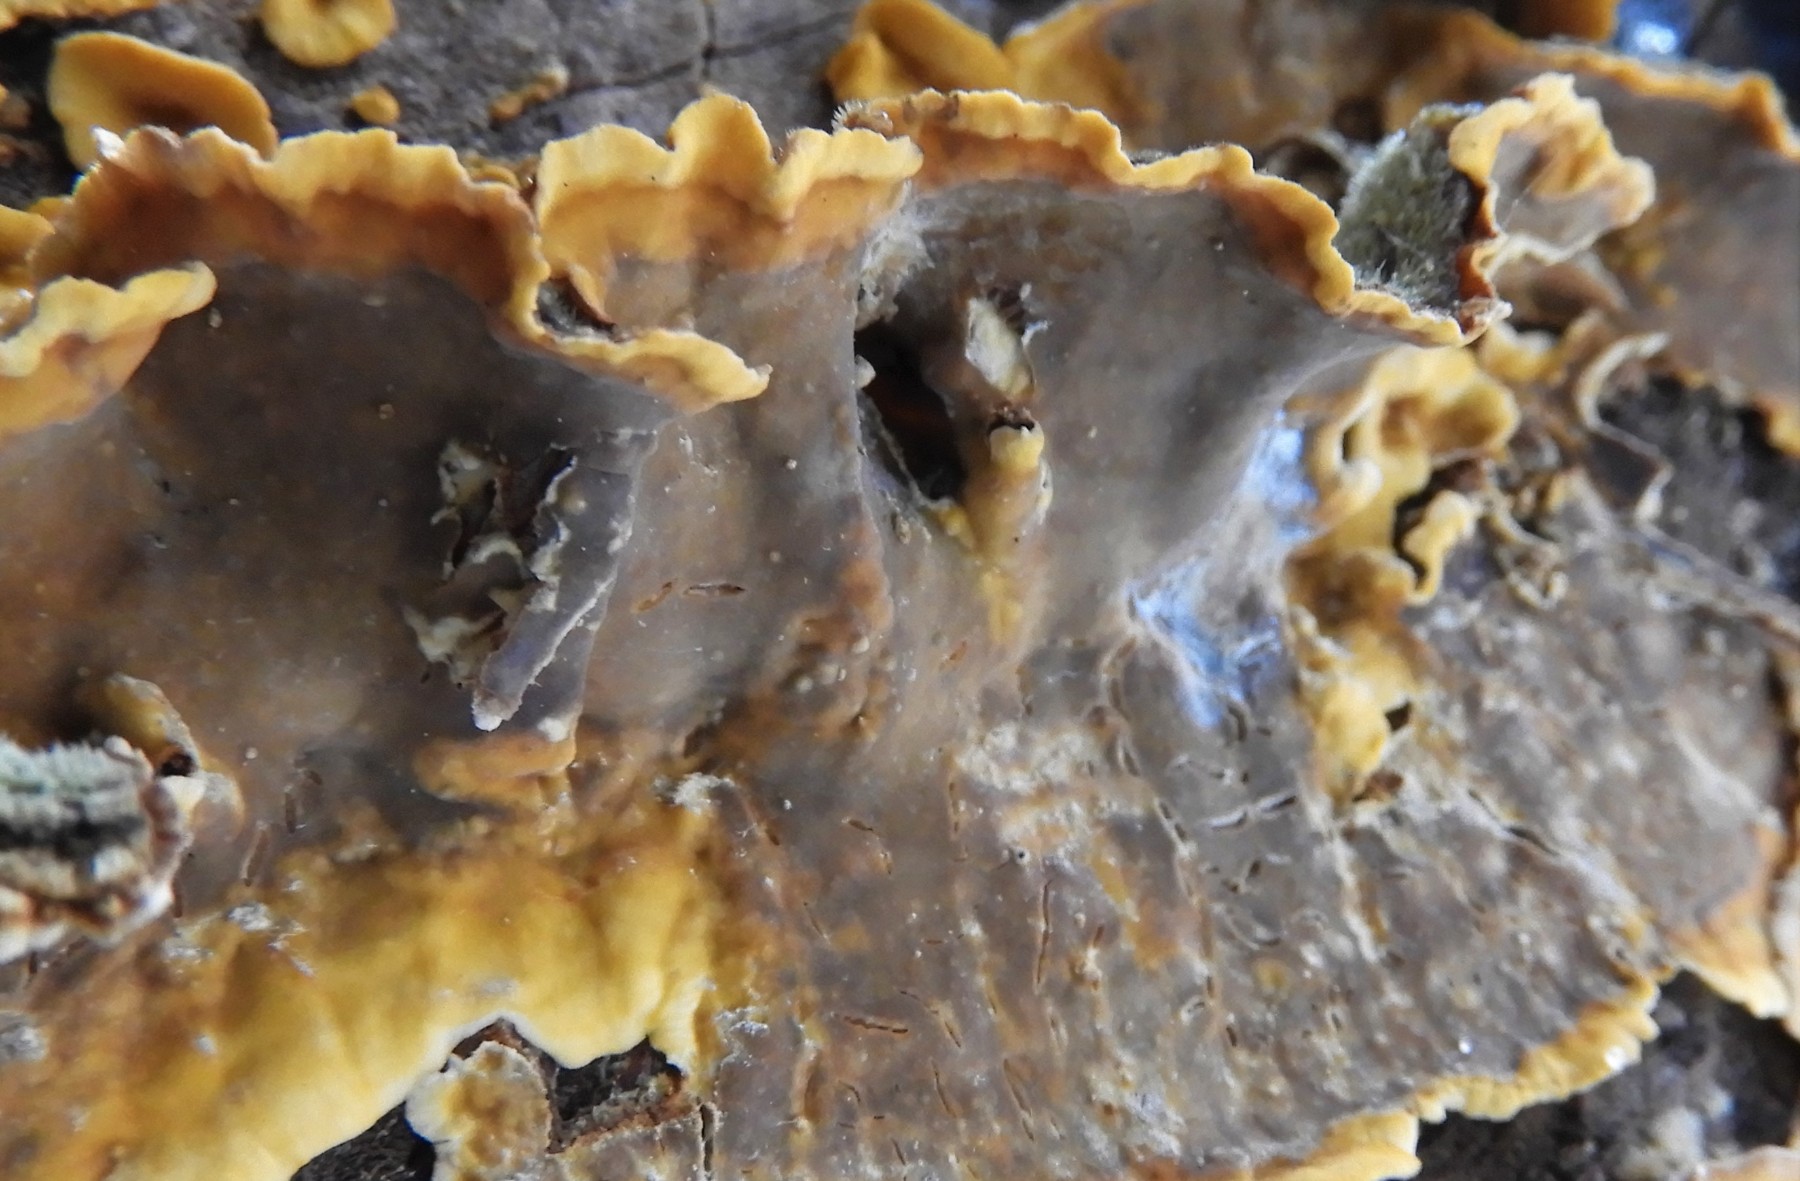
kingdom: Fungi
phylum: Basidiomycota
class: Agaricomycetes
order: Russulales
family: Stereaceae
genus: Stereum
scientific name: Stereum subtomentosum
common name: smuk lædersvamp
